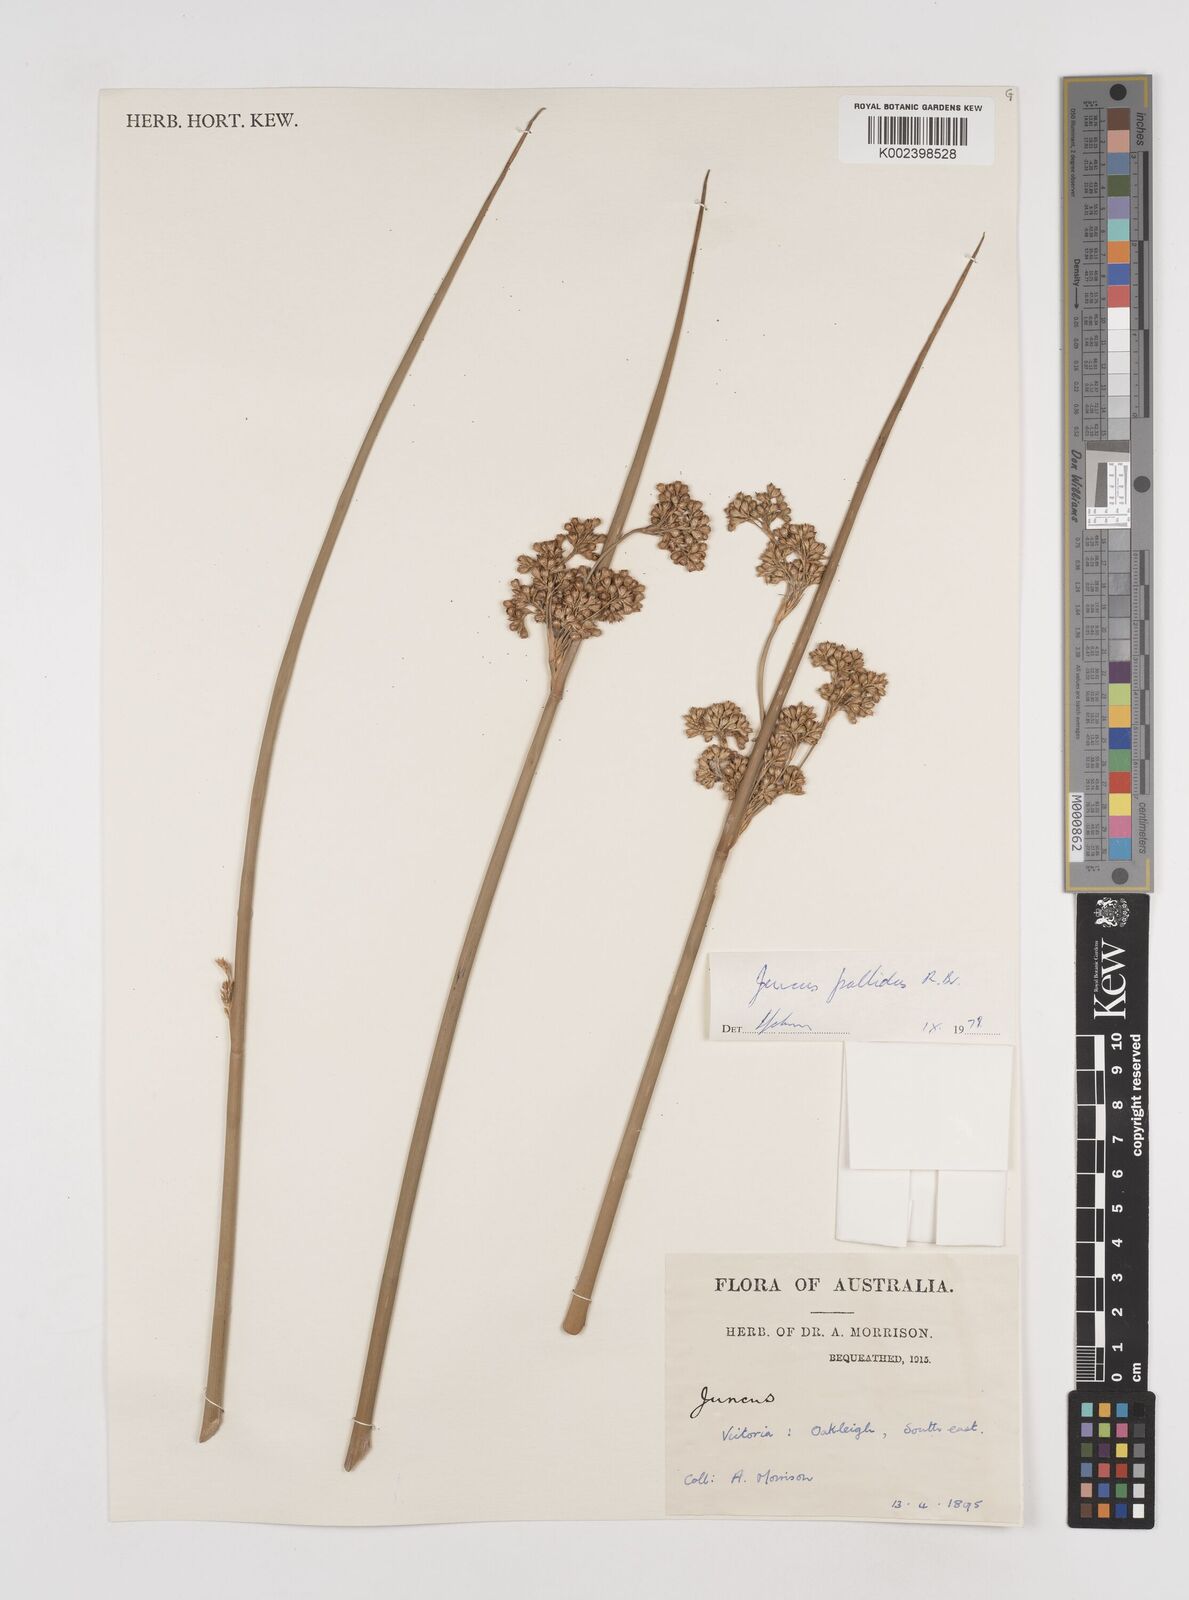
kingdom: Plantae
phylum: Tracheophyta
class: Liliopsida
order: Poales
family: Juncaceae
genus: Juncus
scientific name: Juncus pallidus
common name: Great soft-rush
